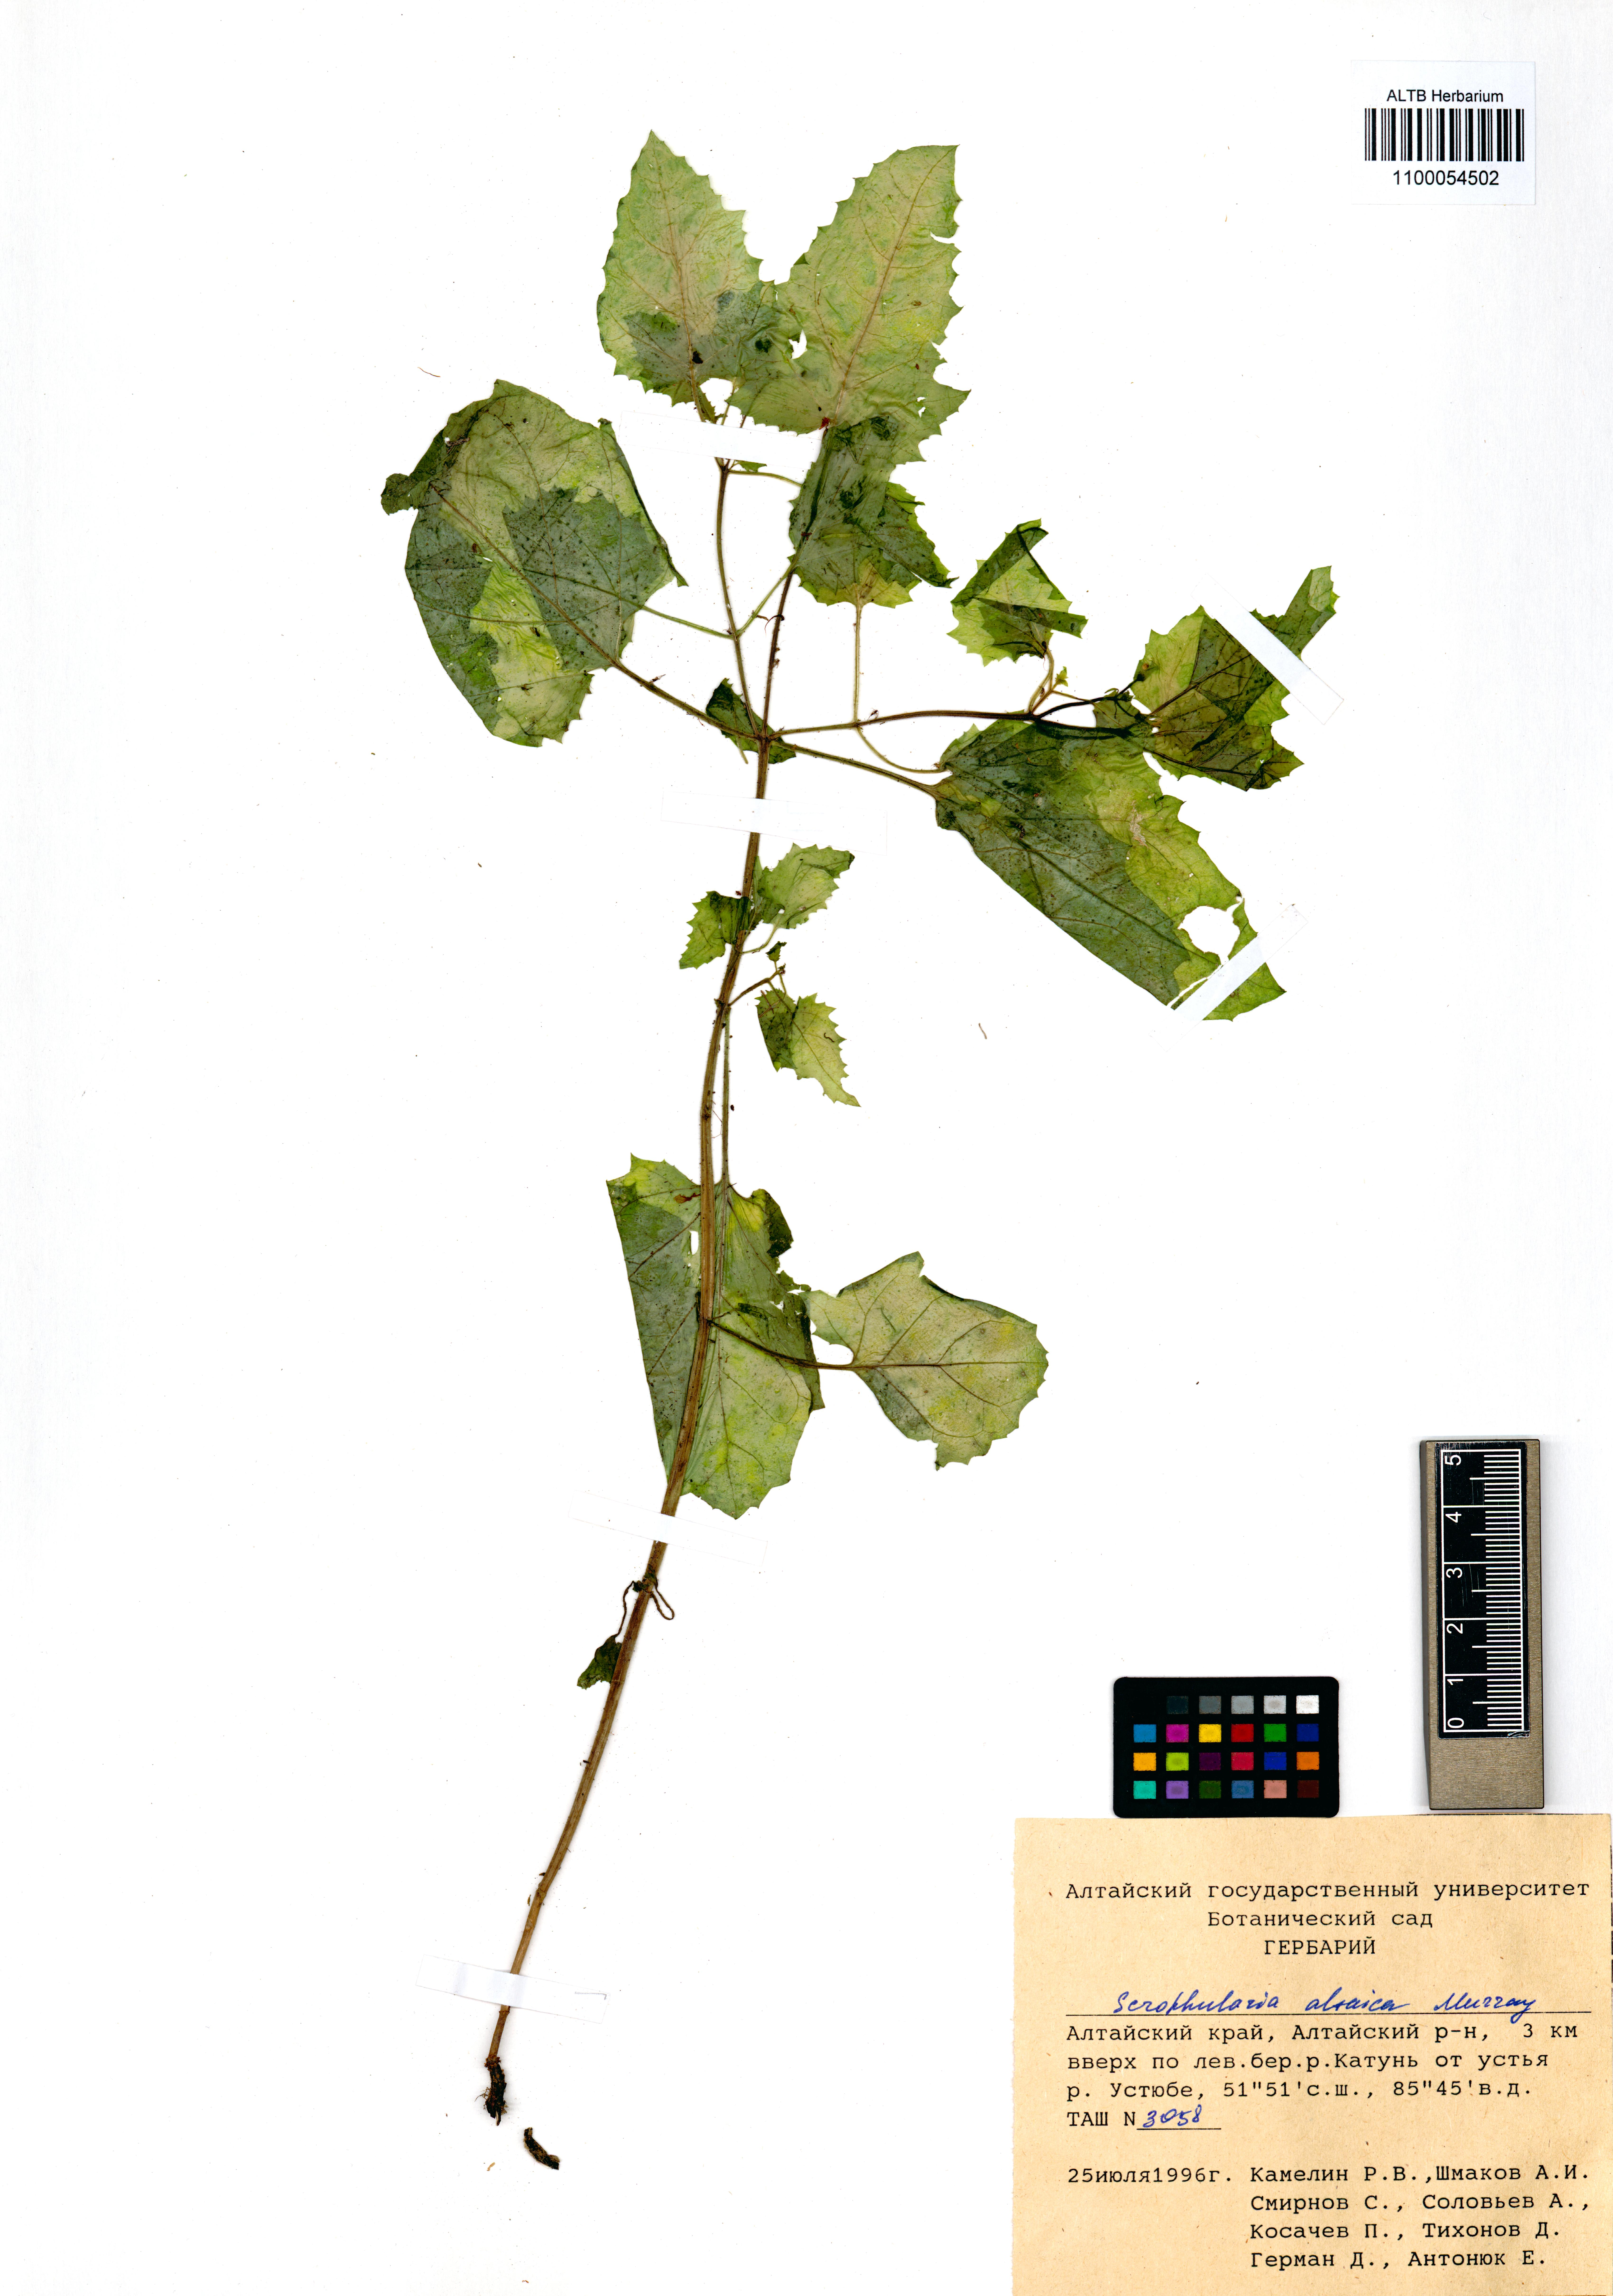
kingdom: Plantae
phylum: Tracheophyta
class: Magnoliopsida
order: Lamiales
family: Scrophulariaceae
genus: Scrophularia
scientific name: Scrophularia altaica
